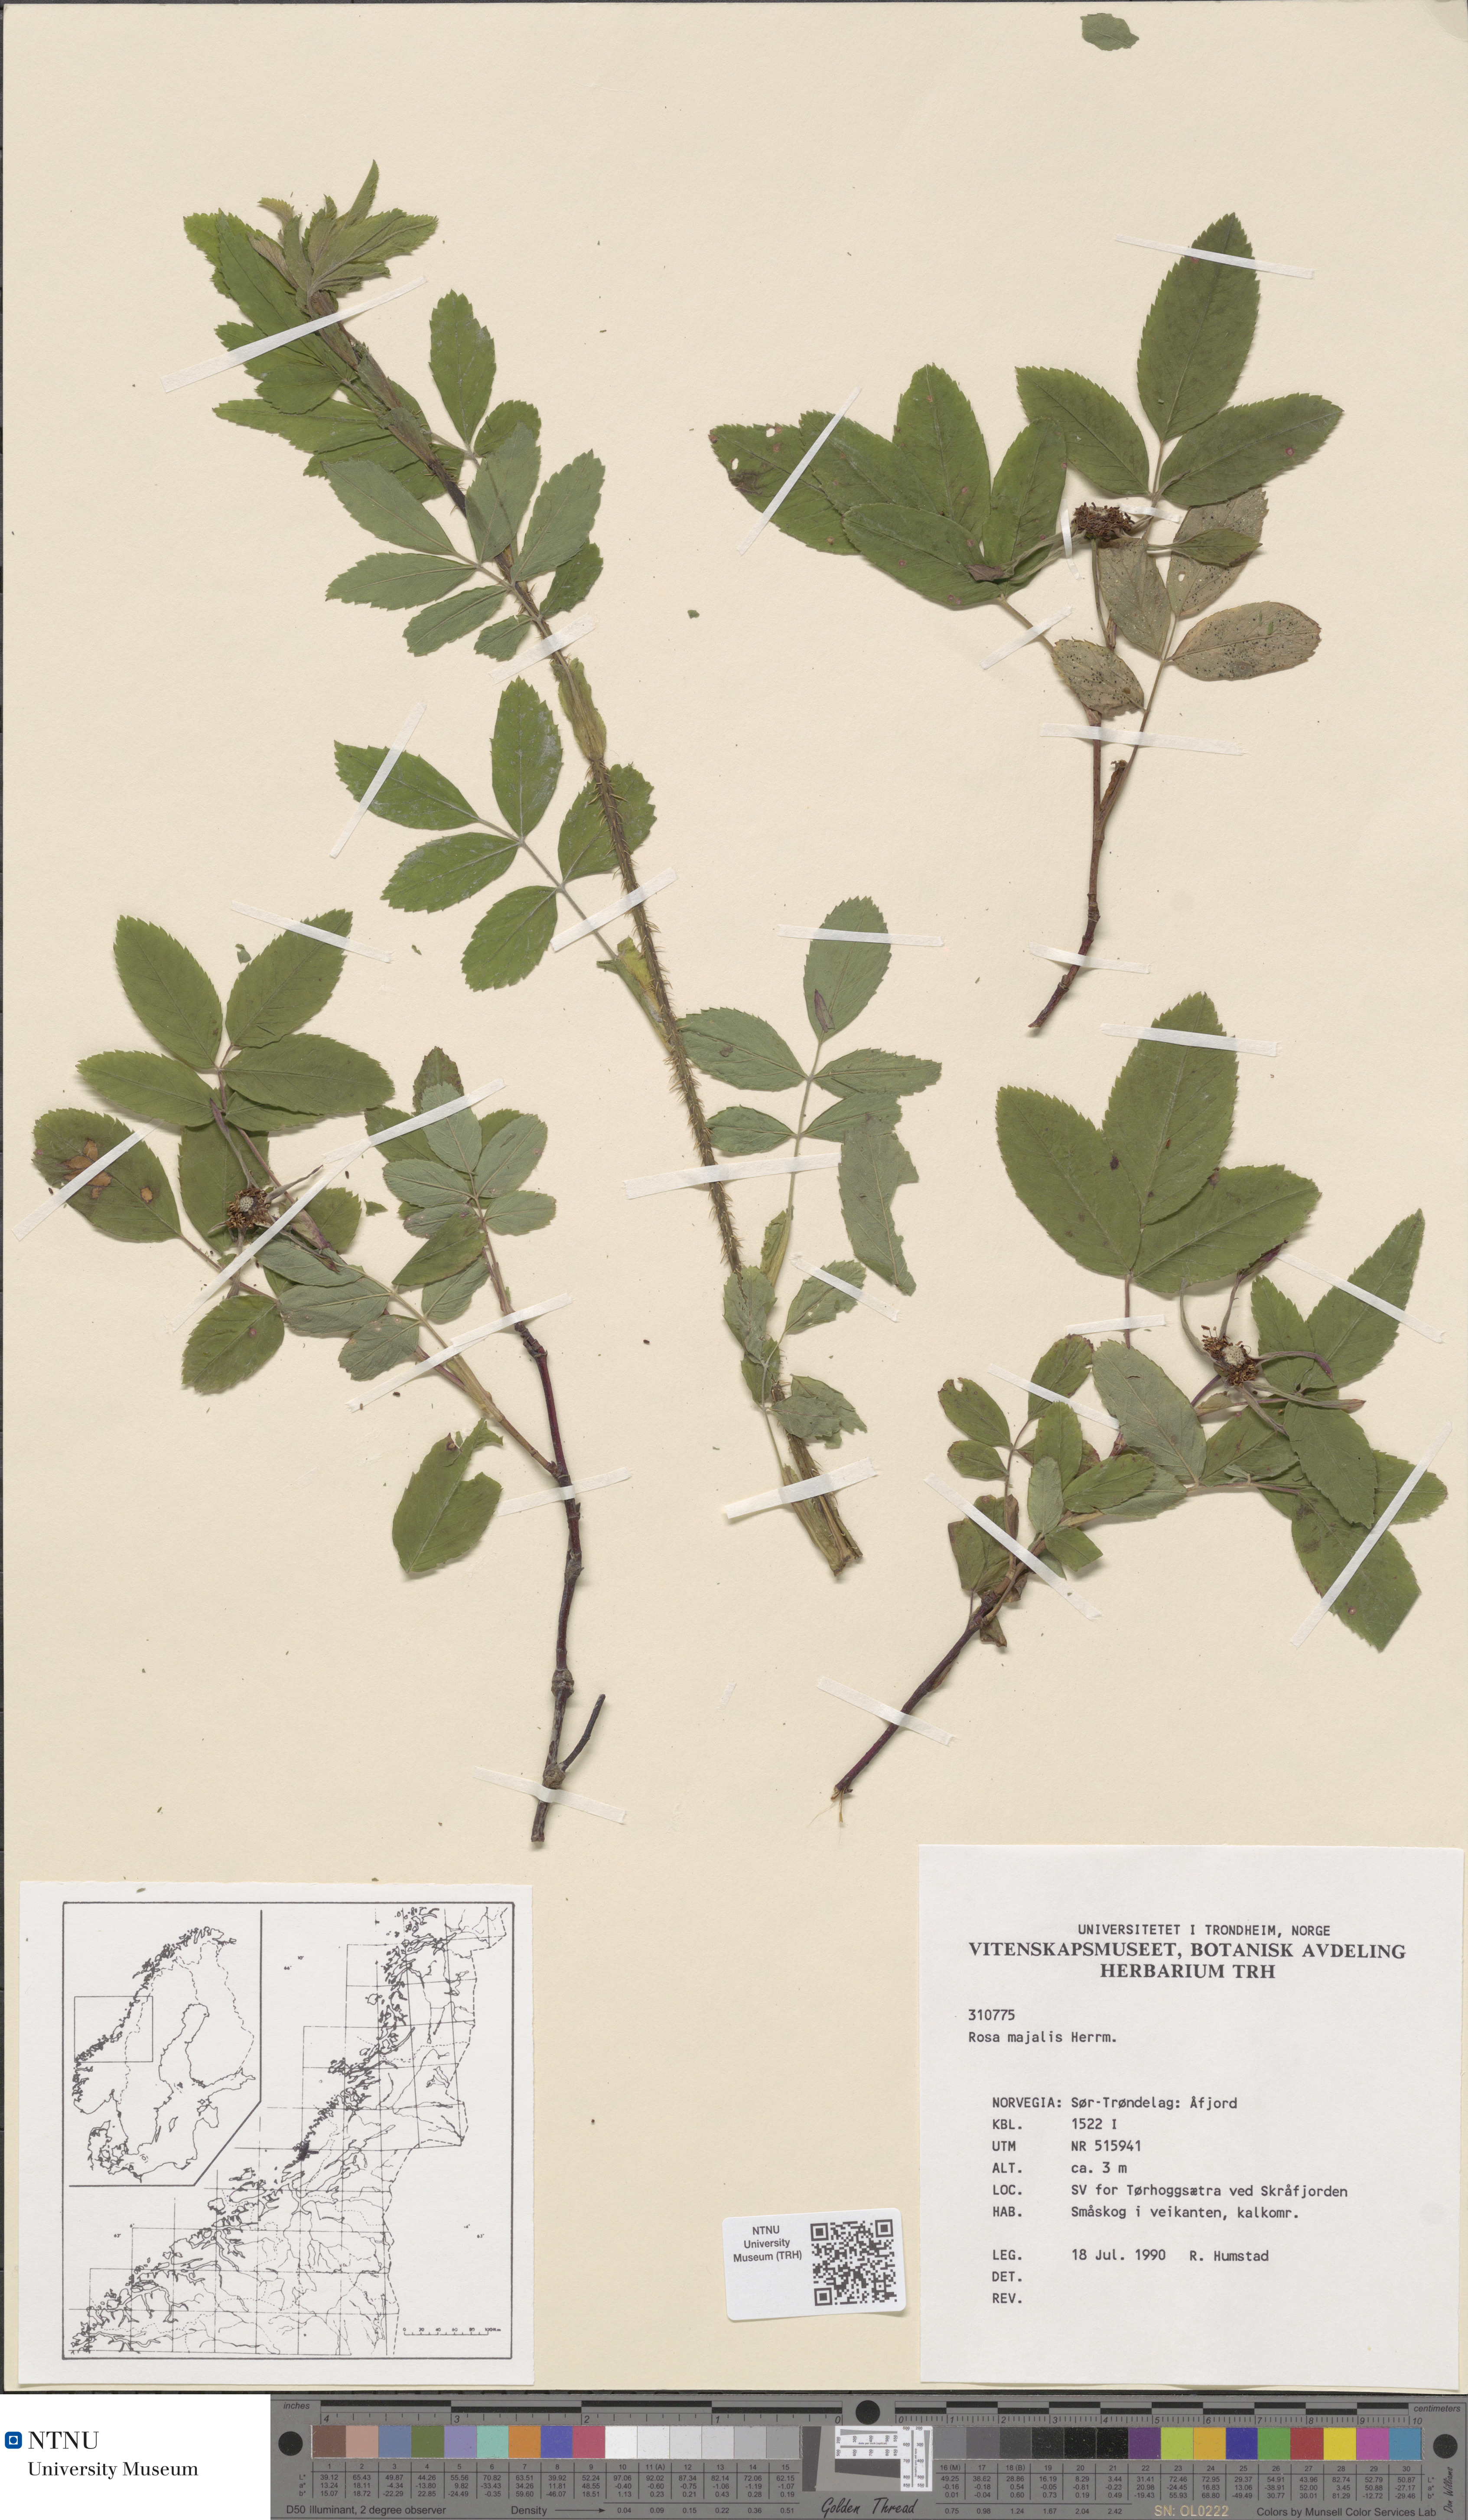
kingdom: Plantae
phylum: Tracheophyta
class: Magnoliopsida
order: Rosales
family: Rosaceae
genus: Rosa
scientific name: Rosa majalis
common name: Cinnamon rose
